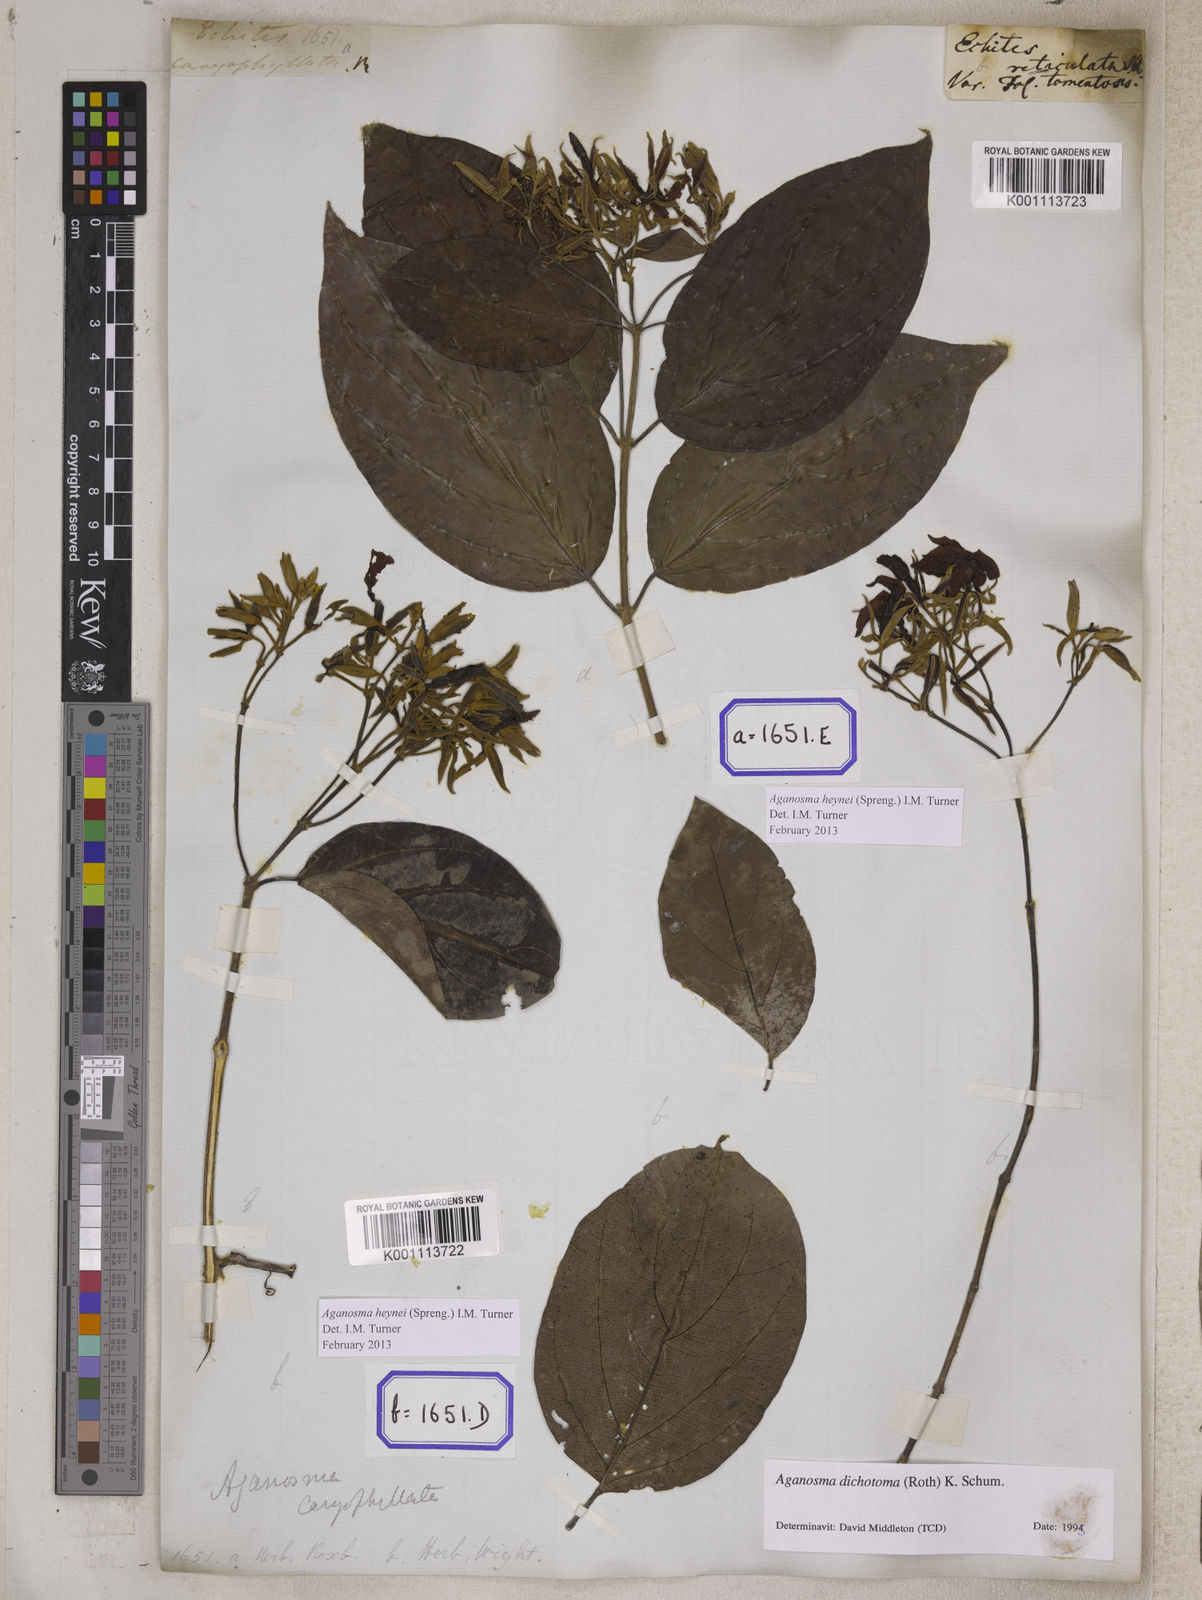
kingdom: Plantae
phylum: Tracheophyta
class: Magnoliopsida
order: Gentianales
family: Apocynaceae
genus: Kamettia
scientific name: Kamettia caryophyllata
